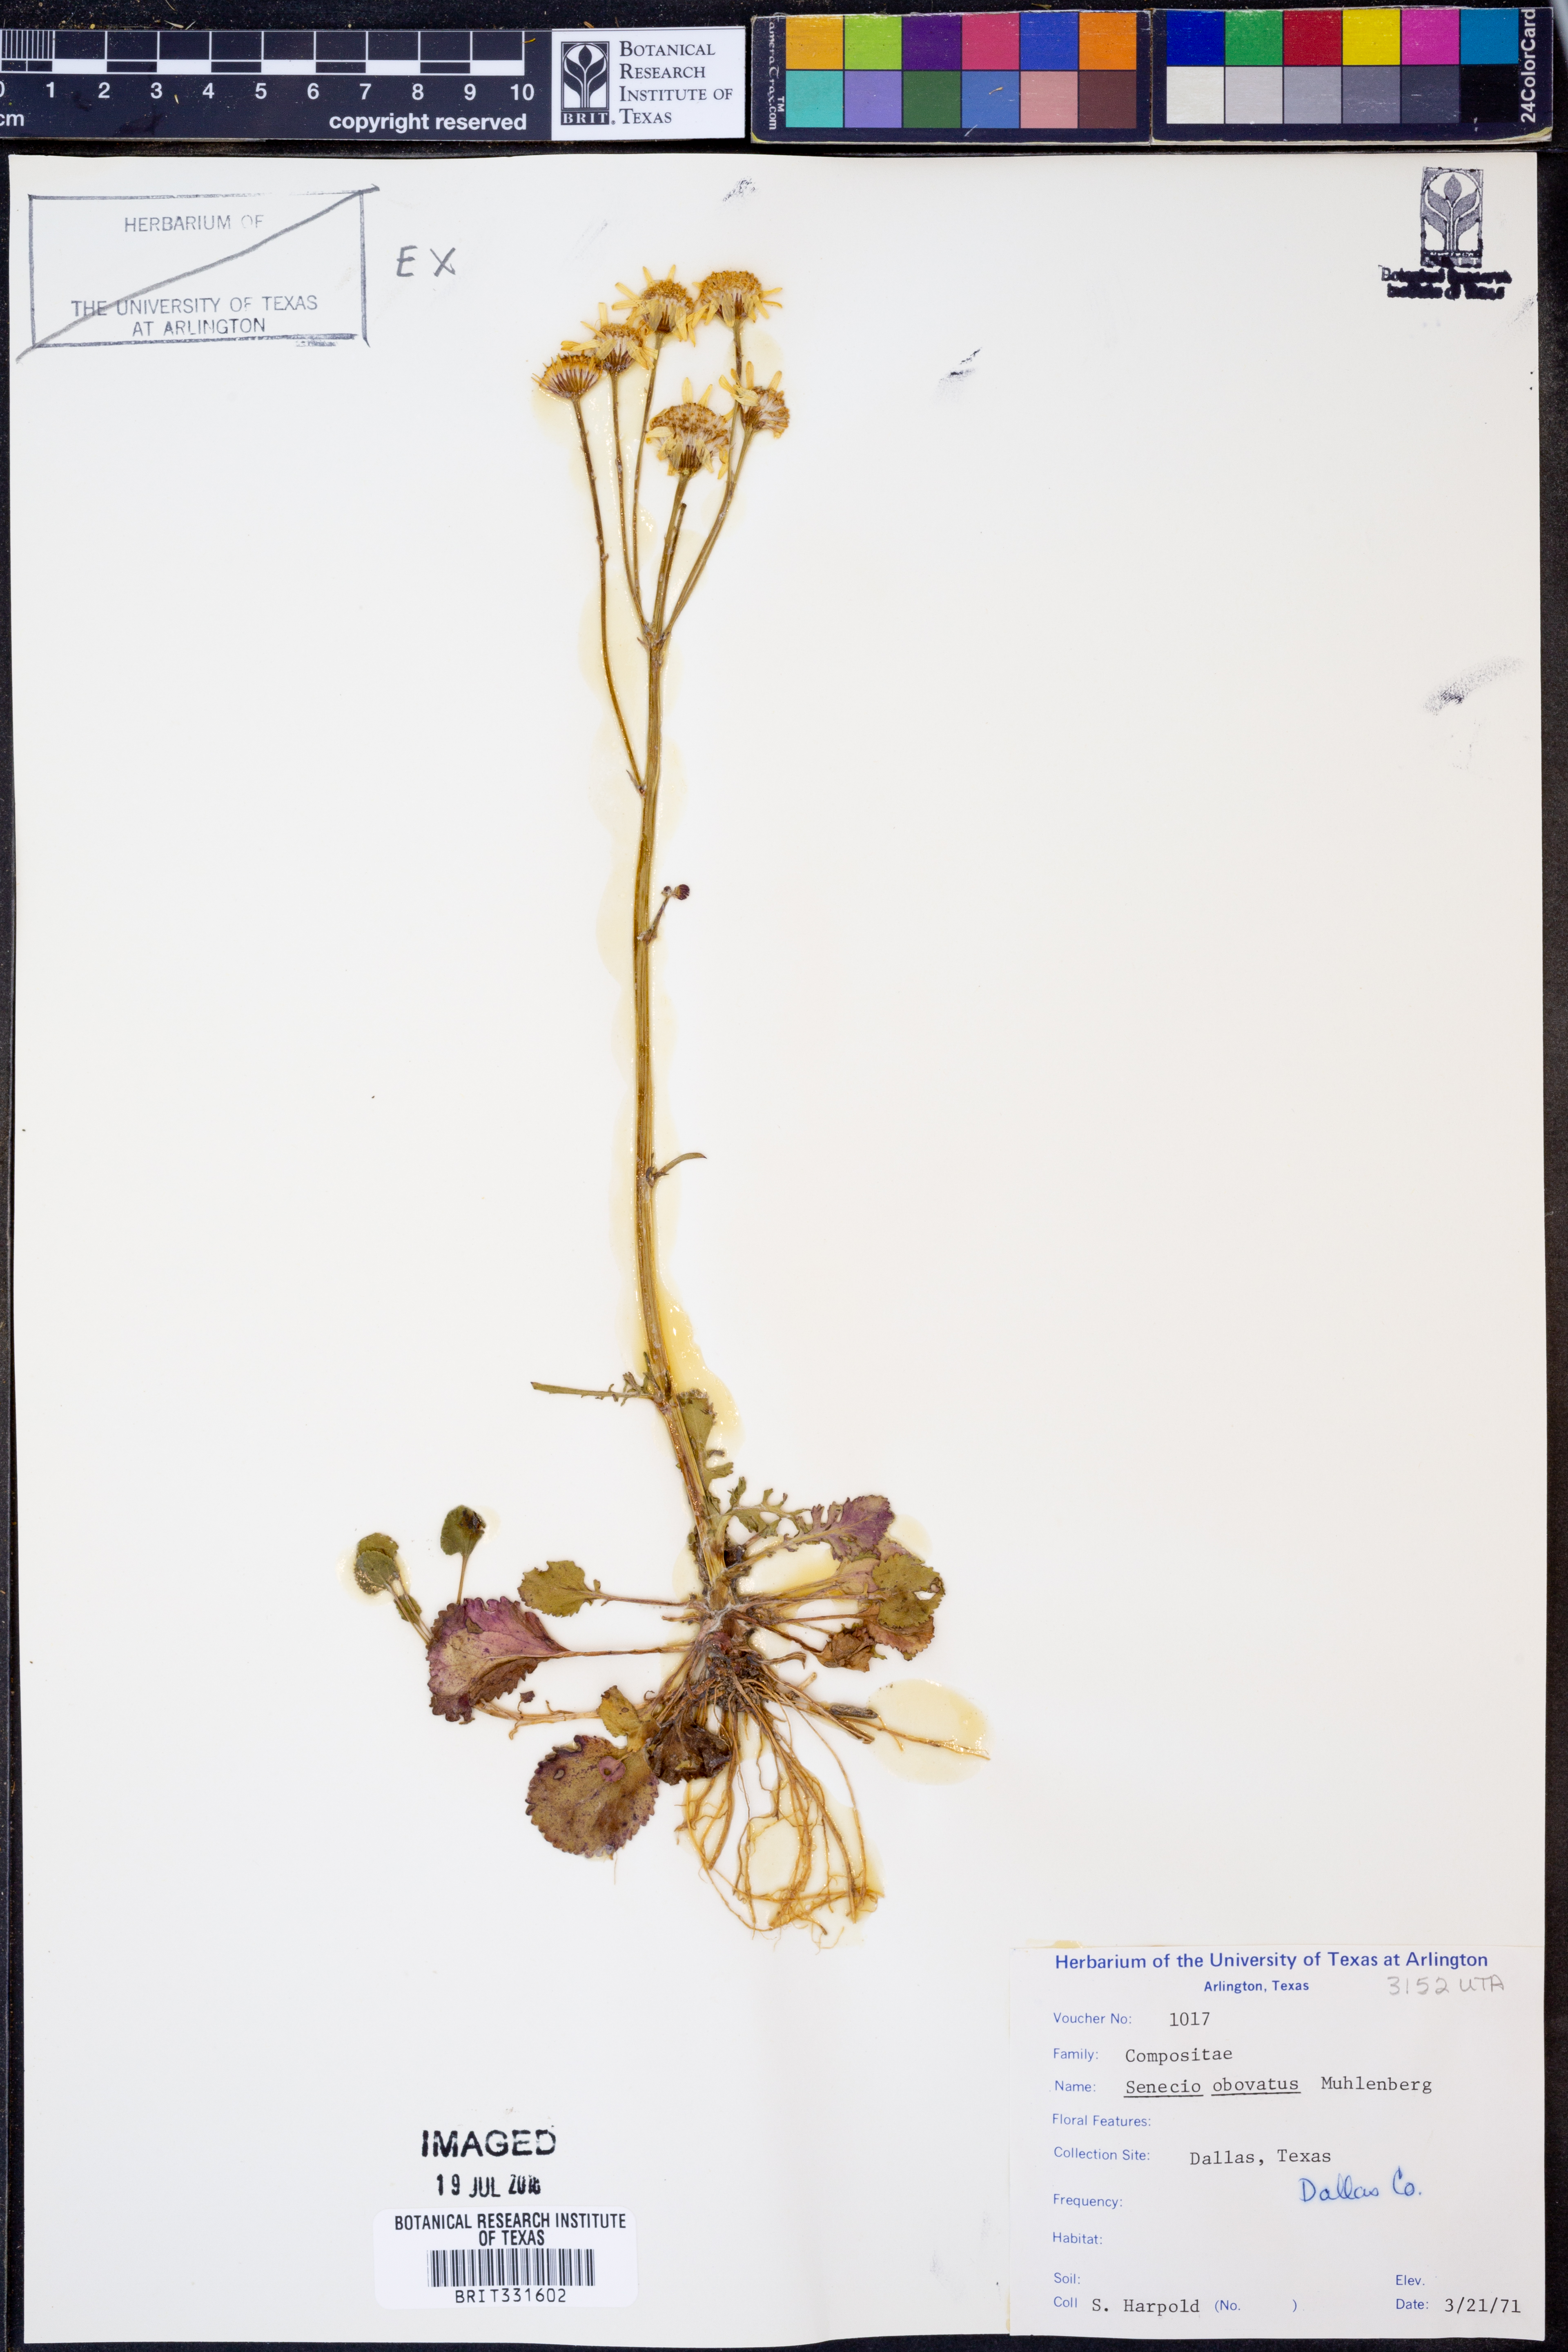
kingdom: Plantae
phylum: Tracheophyta
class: Magnoliopsida
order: Asterales
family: Asteraceae
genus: Senecio
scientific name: Senecio provincialis
